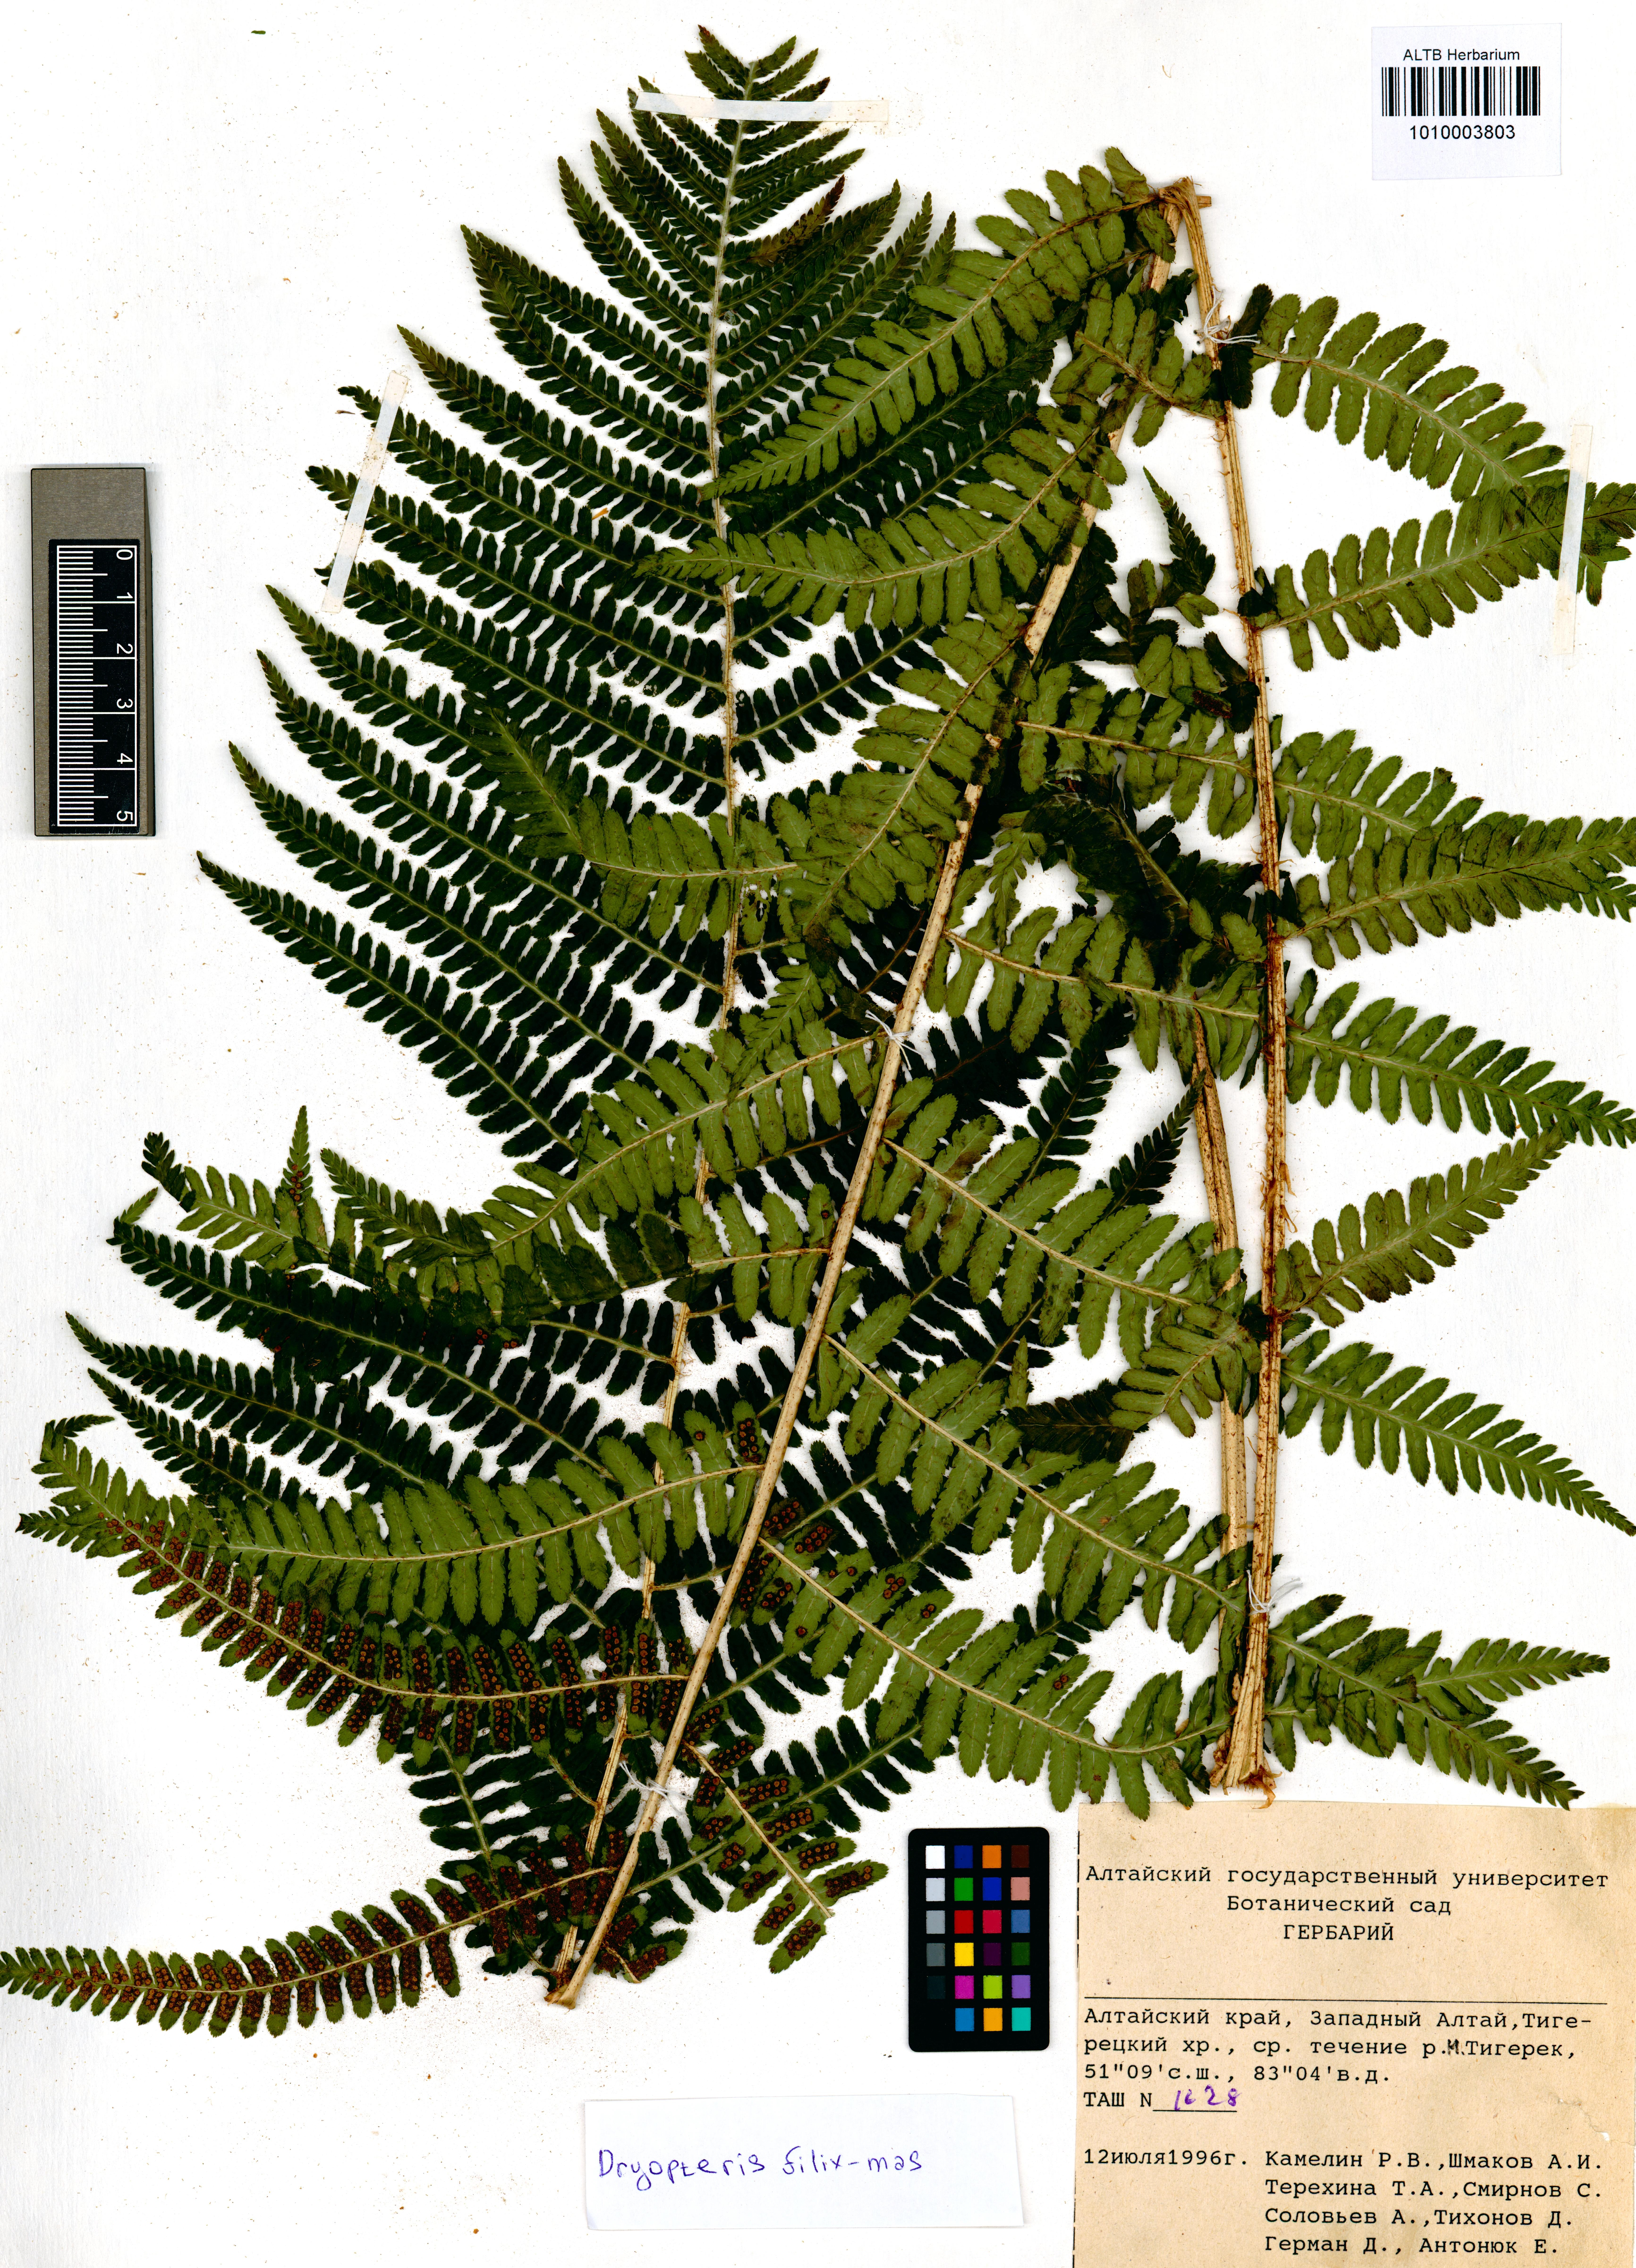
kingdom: Plantae
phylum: Tracheophyta
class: Polypodiopsida
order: Polypodiales
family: Dryopteridaceae
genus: Dryopteris
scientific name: Dryopteris filix-mas
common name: Male fern
